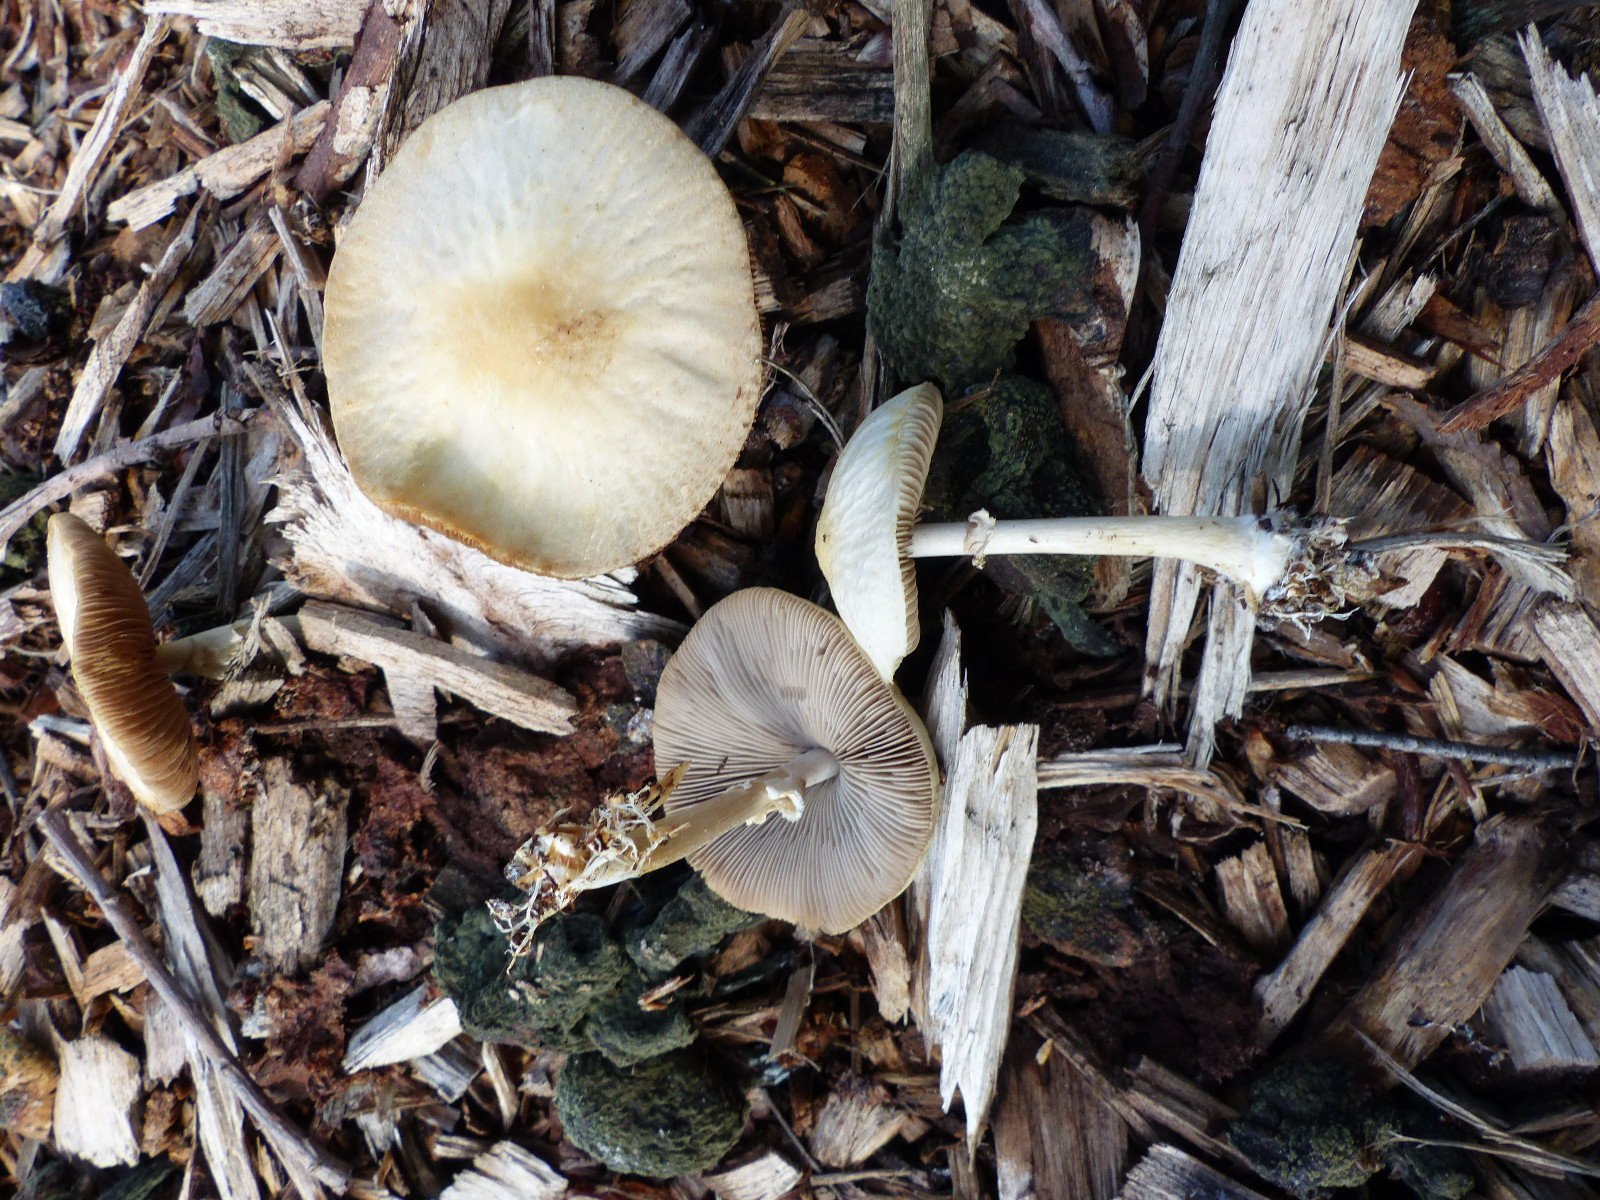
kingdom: Fungi
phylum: Basidiomycota
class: Agaricomycetes
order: Agaricales
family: Strophariaceae
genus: Agrocybe
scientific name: Agrocybe rivulosa
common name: året agerhat
